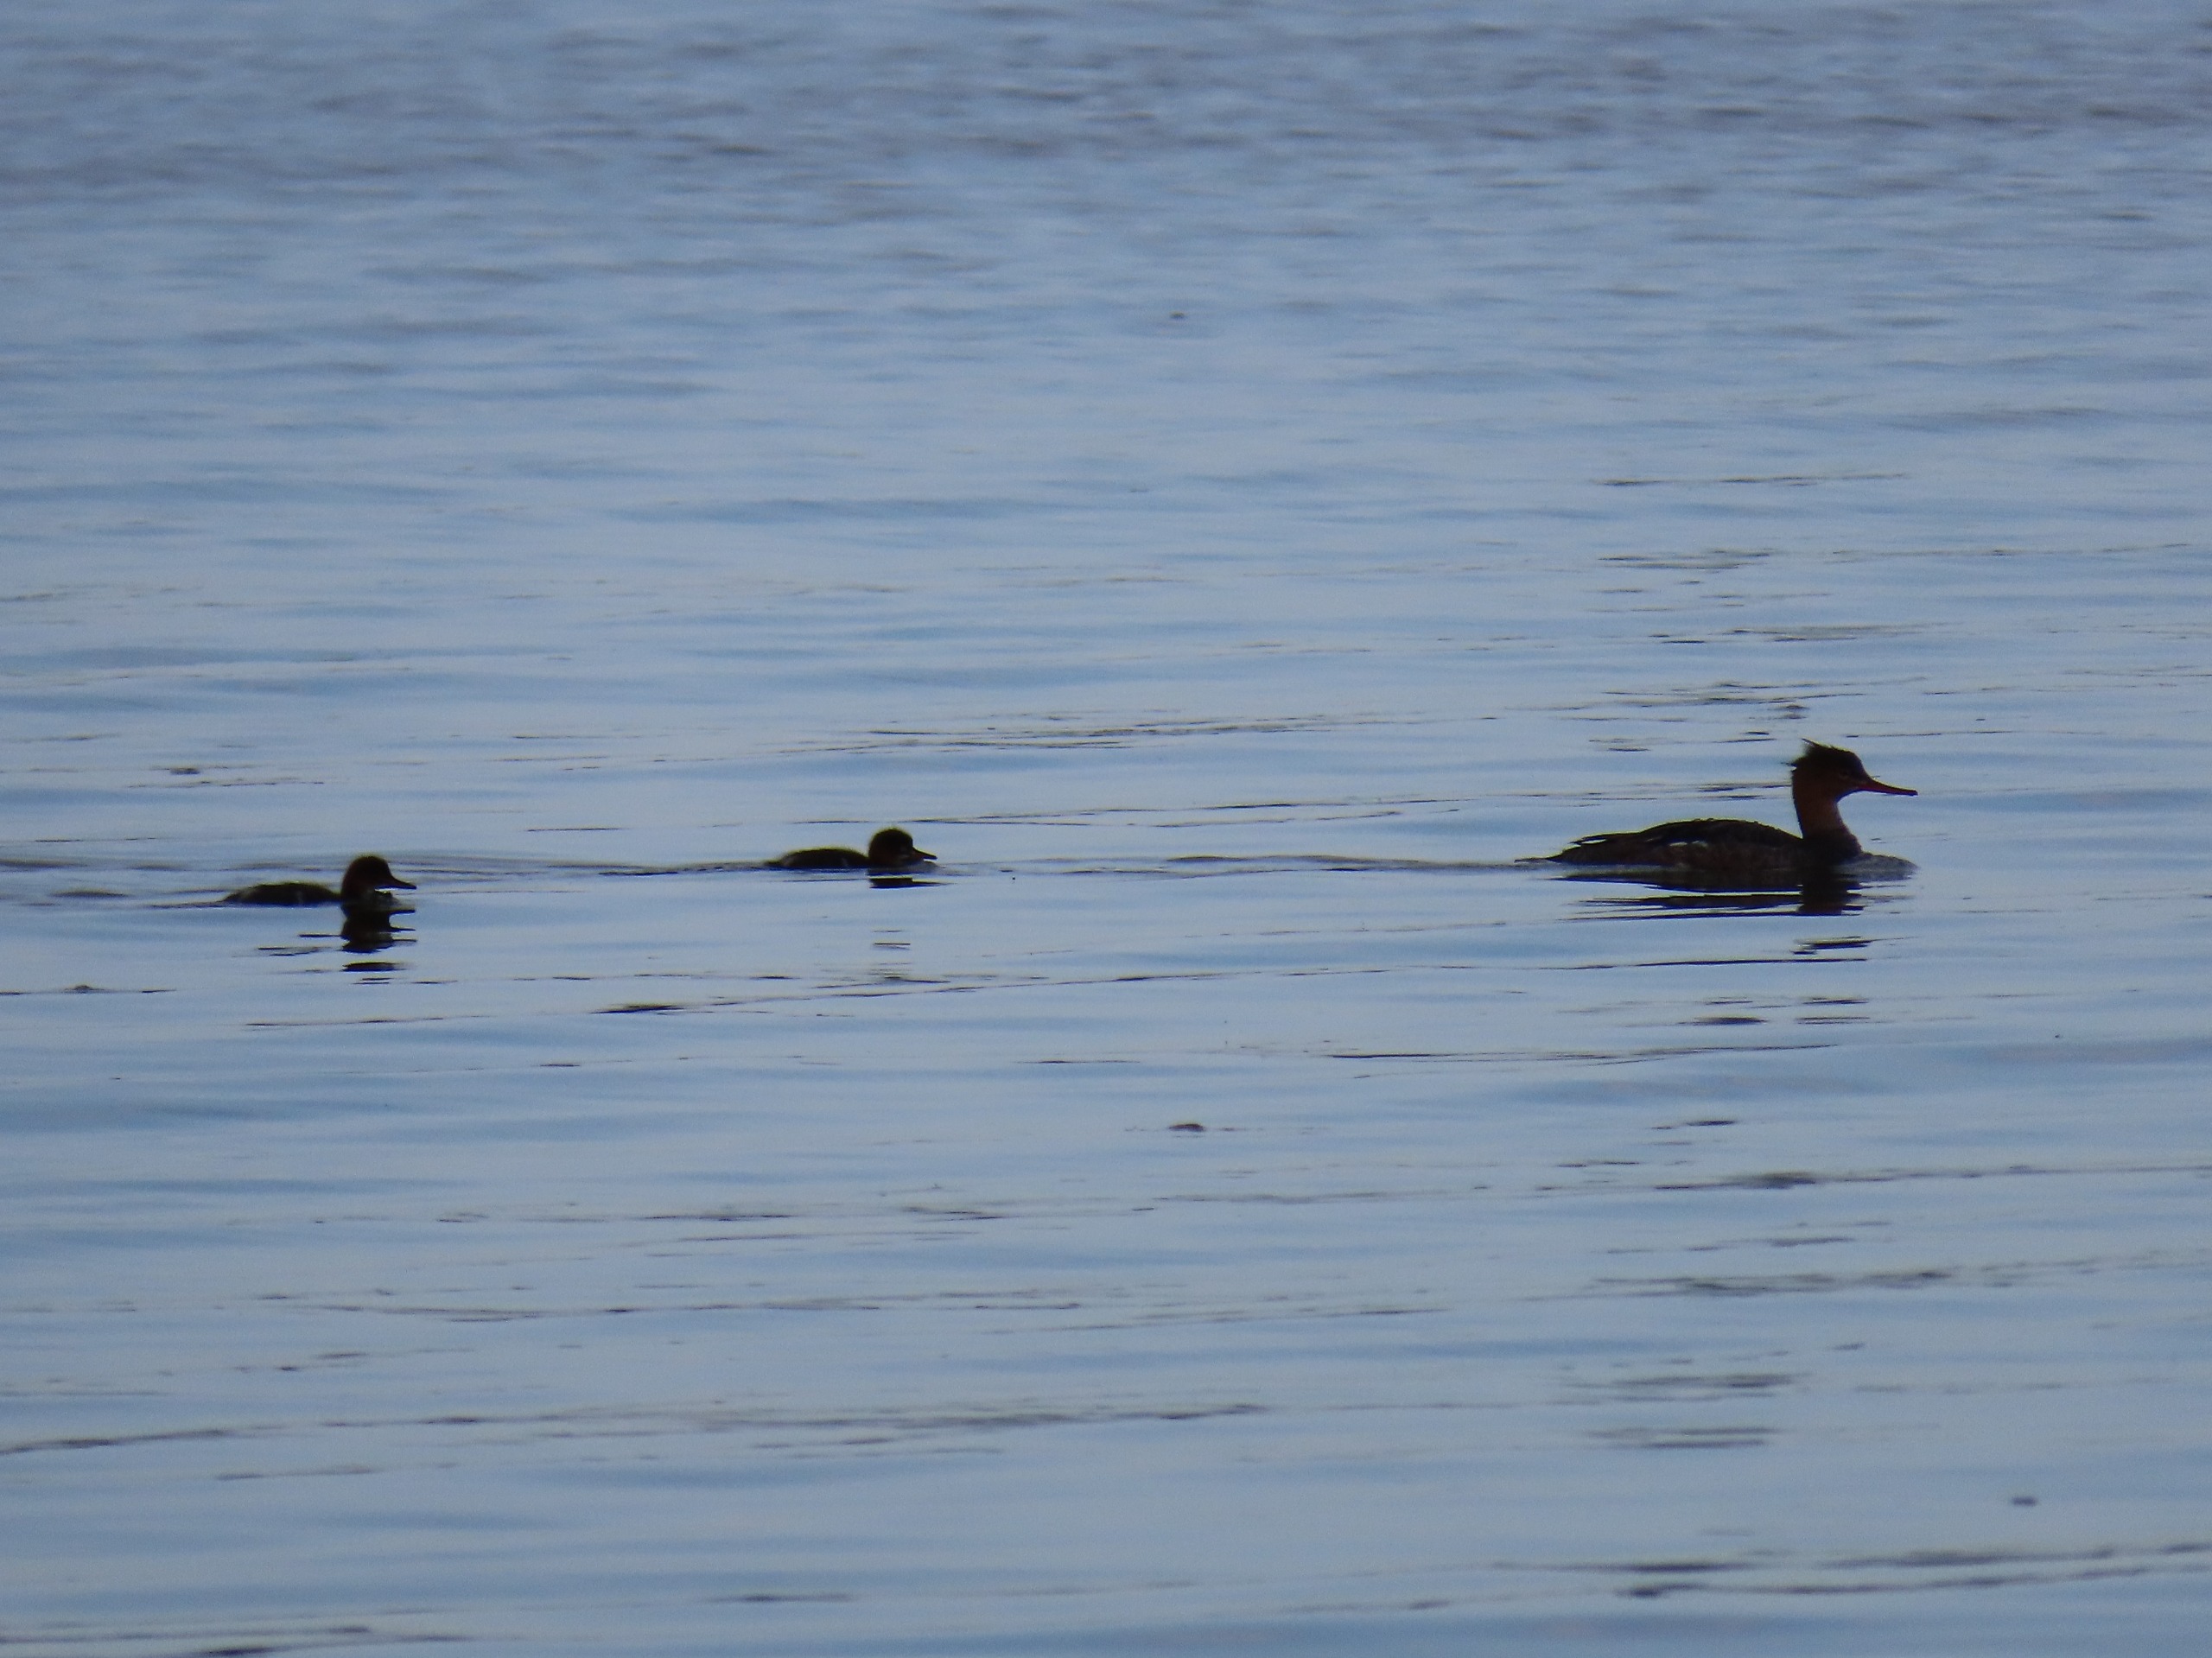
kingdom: Animalia
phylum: Chordata
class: Aves
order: Anseriformes
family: Anatidae
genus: Mergus
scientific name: Mergus serrator
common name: Toppet skallesluger
